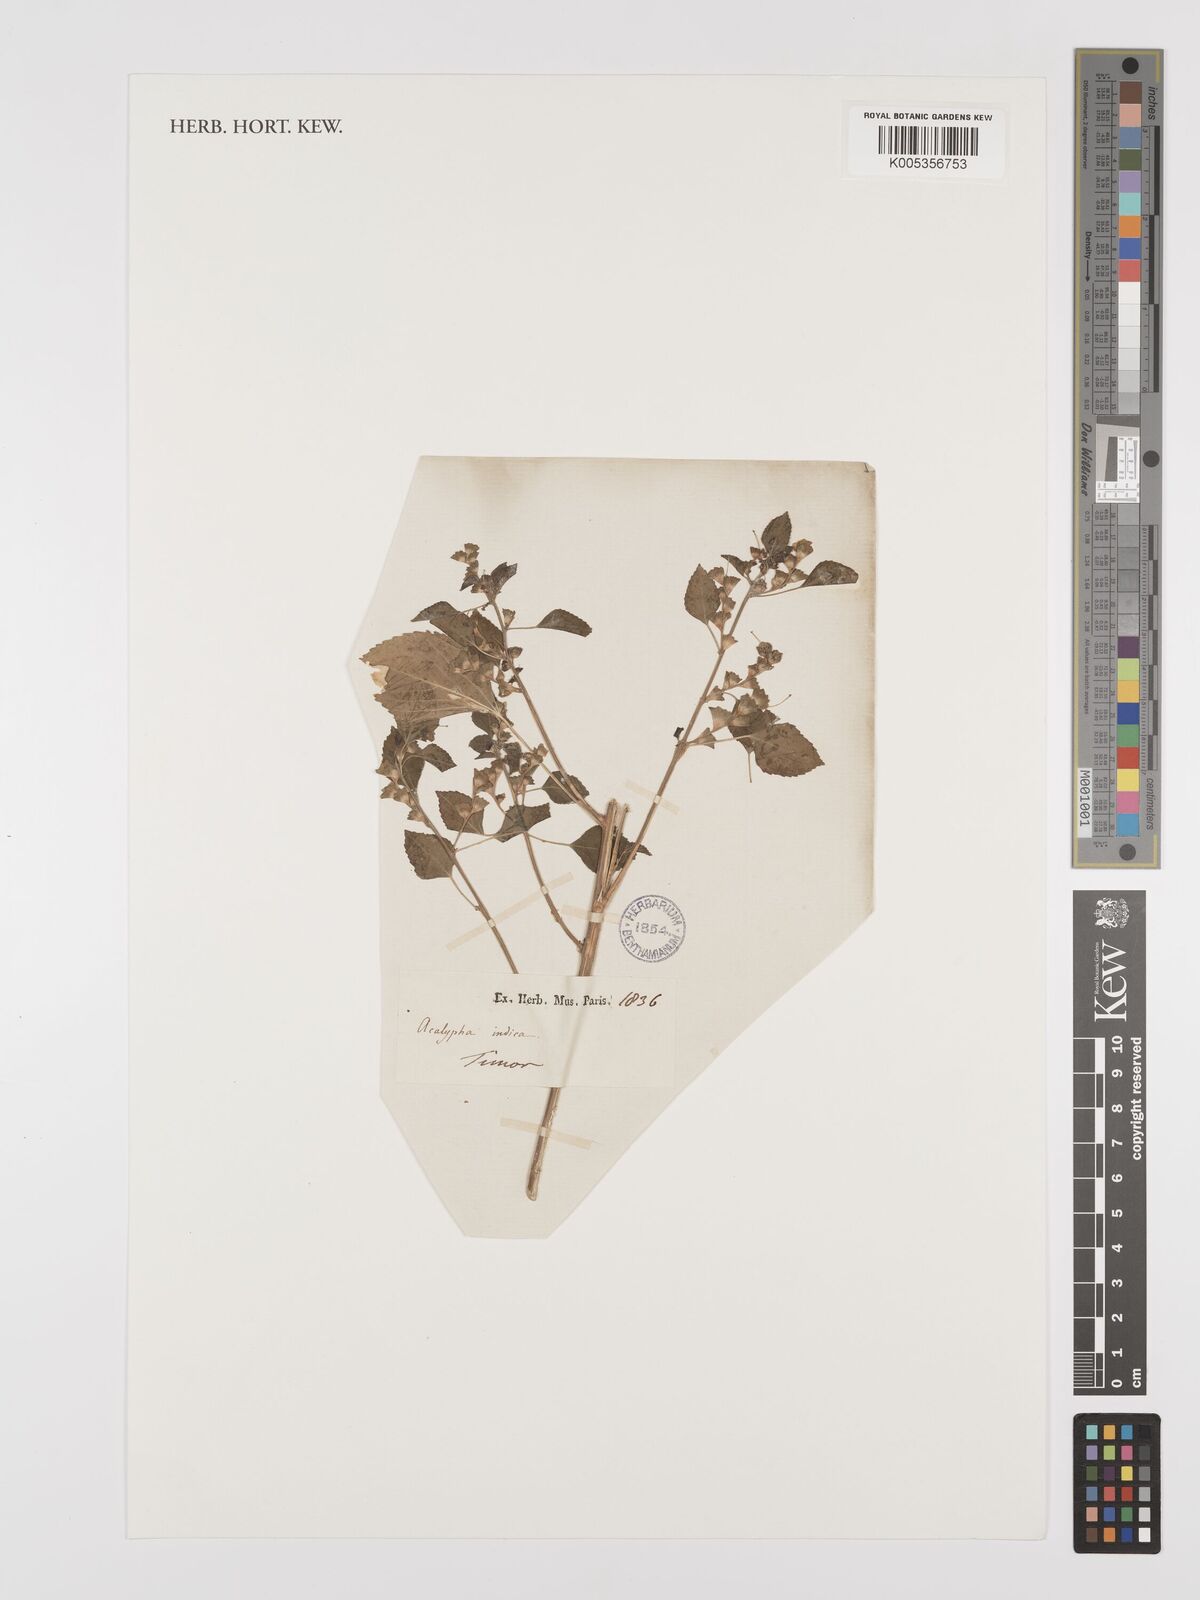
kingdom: Plantae
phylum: Tracheophyta
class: Magnoliopsida
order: Malpighiales
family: Euphorbiaceae
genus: Acalypha
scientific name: Acalypha indica
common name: Indian acalypha
